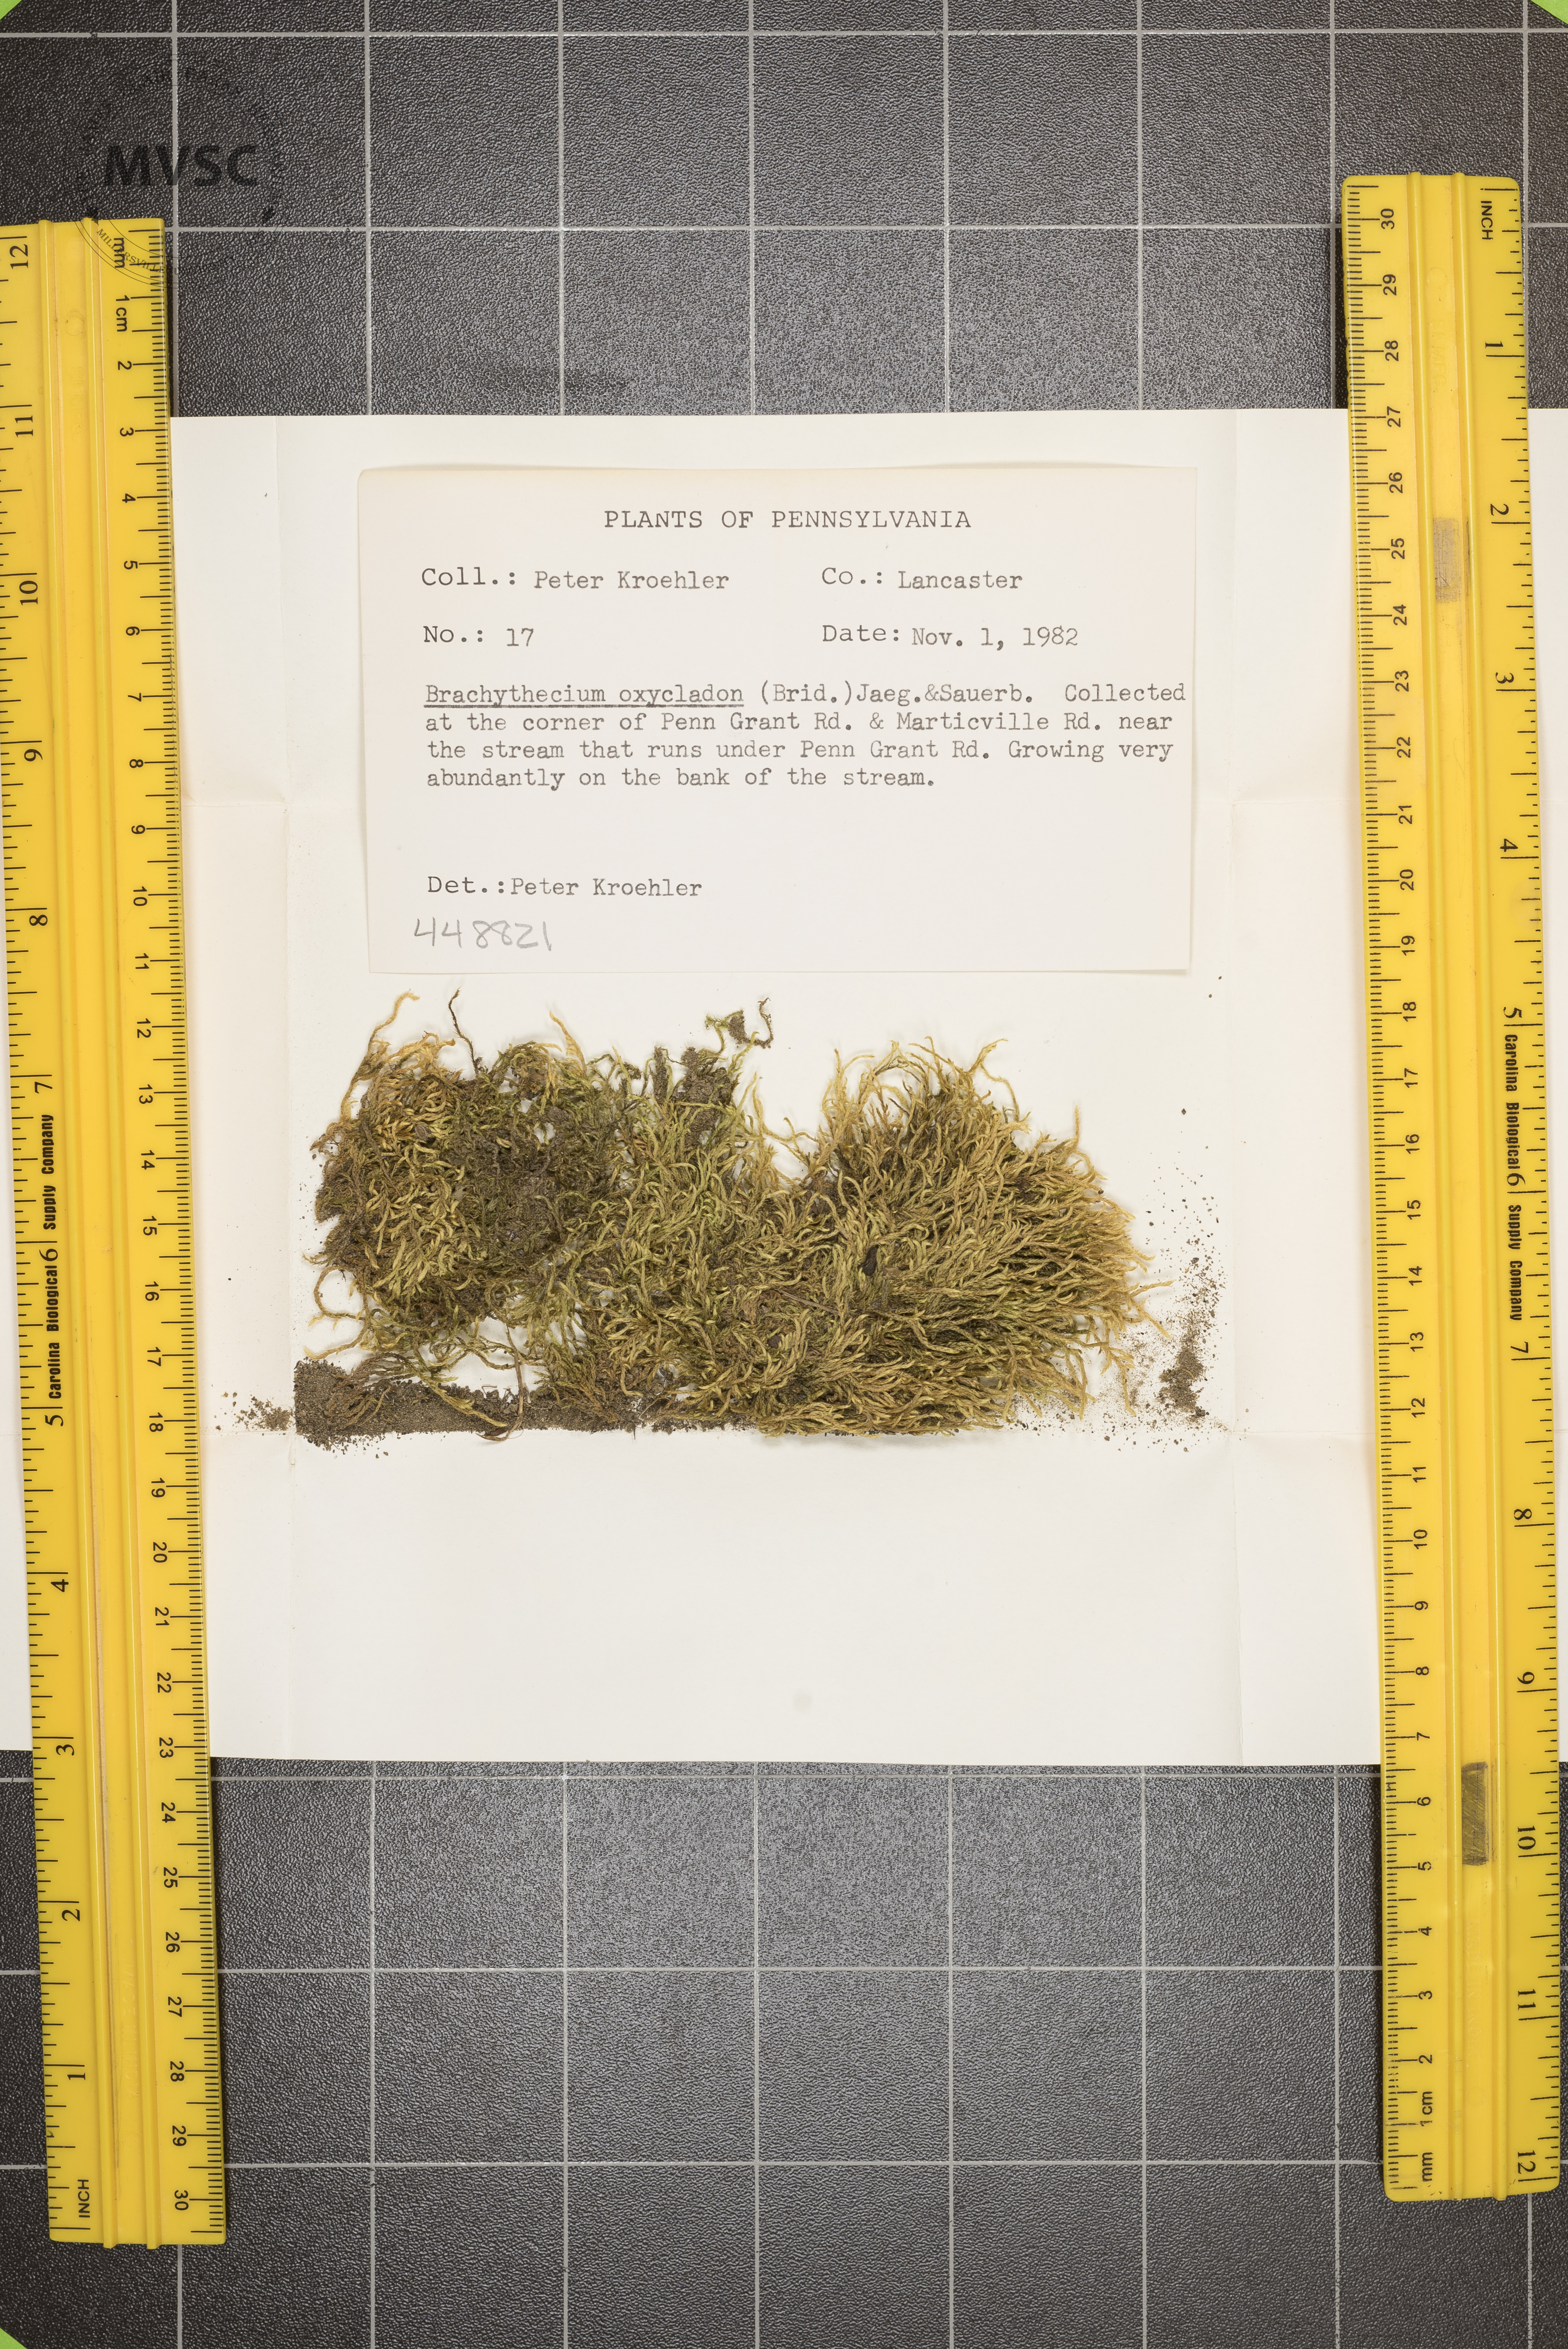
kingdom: Plantae
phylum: Bryophyta
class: Bryopsida
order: Hypnales
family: Brachytheciaceae
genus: Brachythecium
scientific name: Brachythecium acuminatum
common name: Acuminate ragged moss
